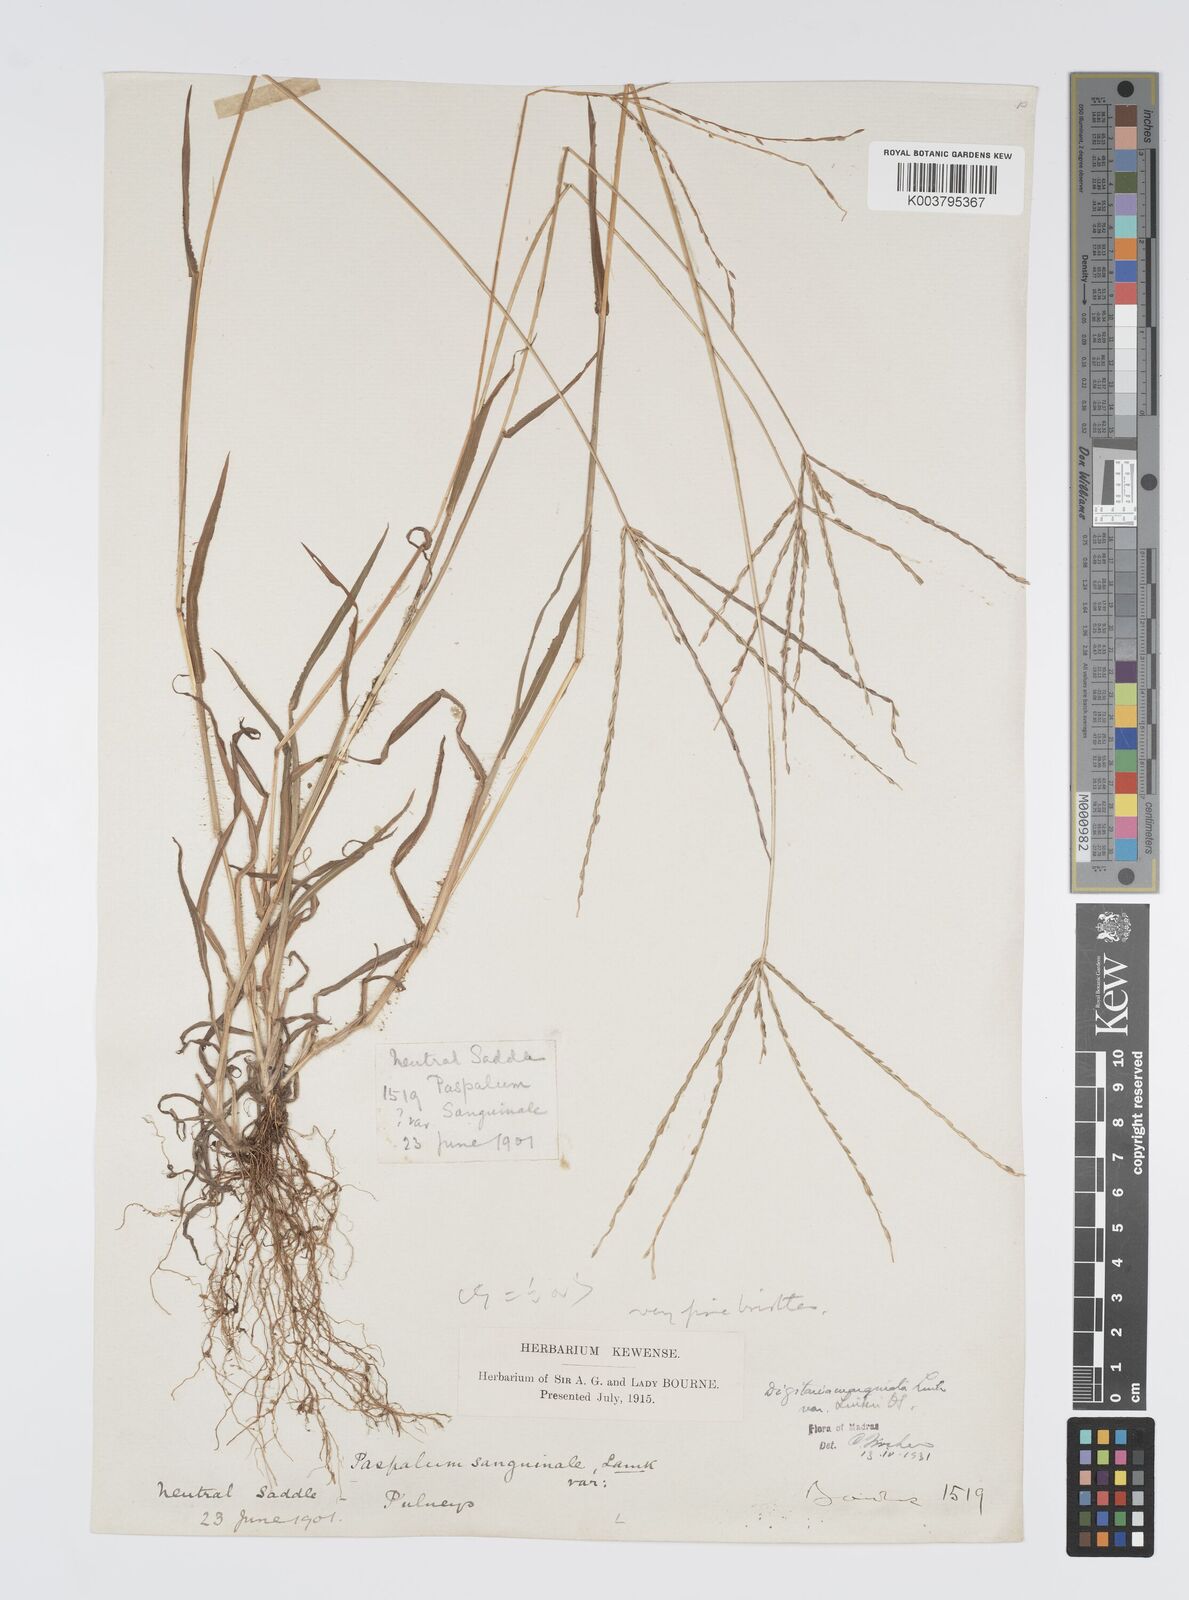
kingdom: Plantae
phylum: Tracheophyta
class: Liliopsida
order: Poales
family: Poaceae
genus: Digitaria
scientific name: Digitaria ciliaris
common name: Tropical finger-grass
